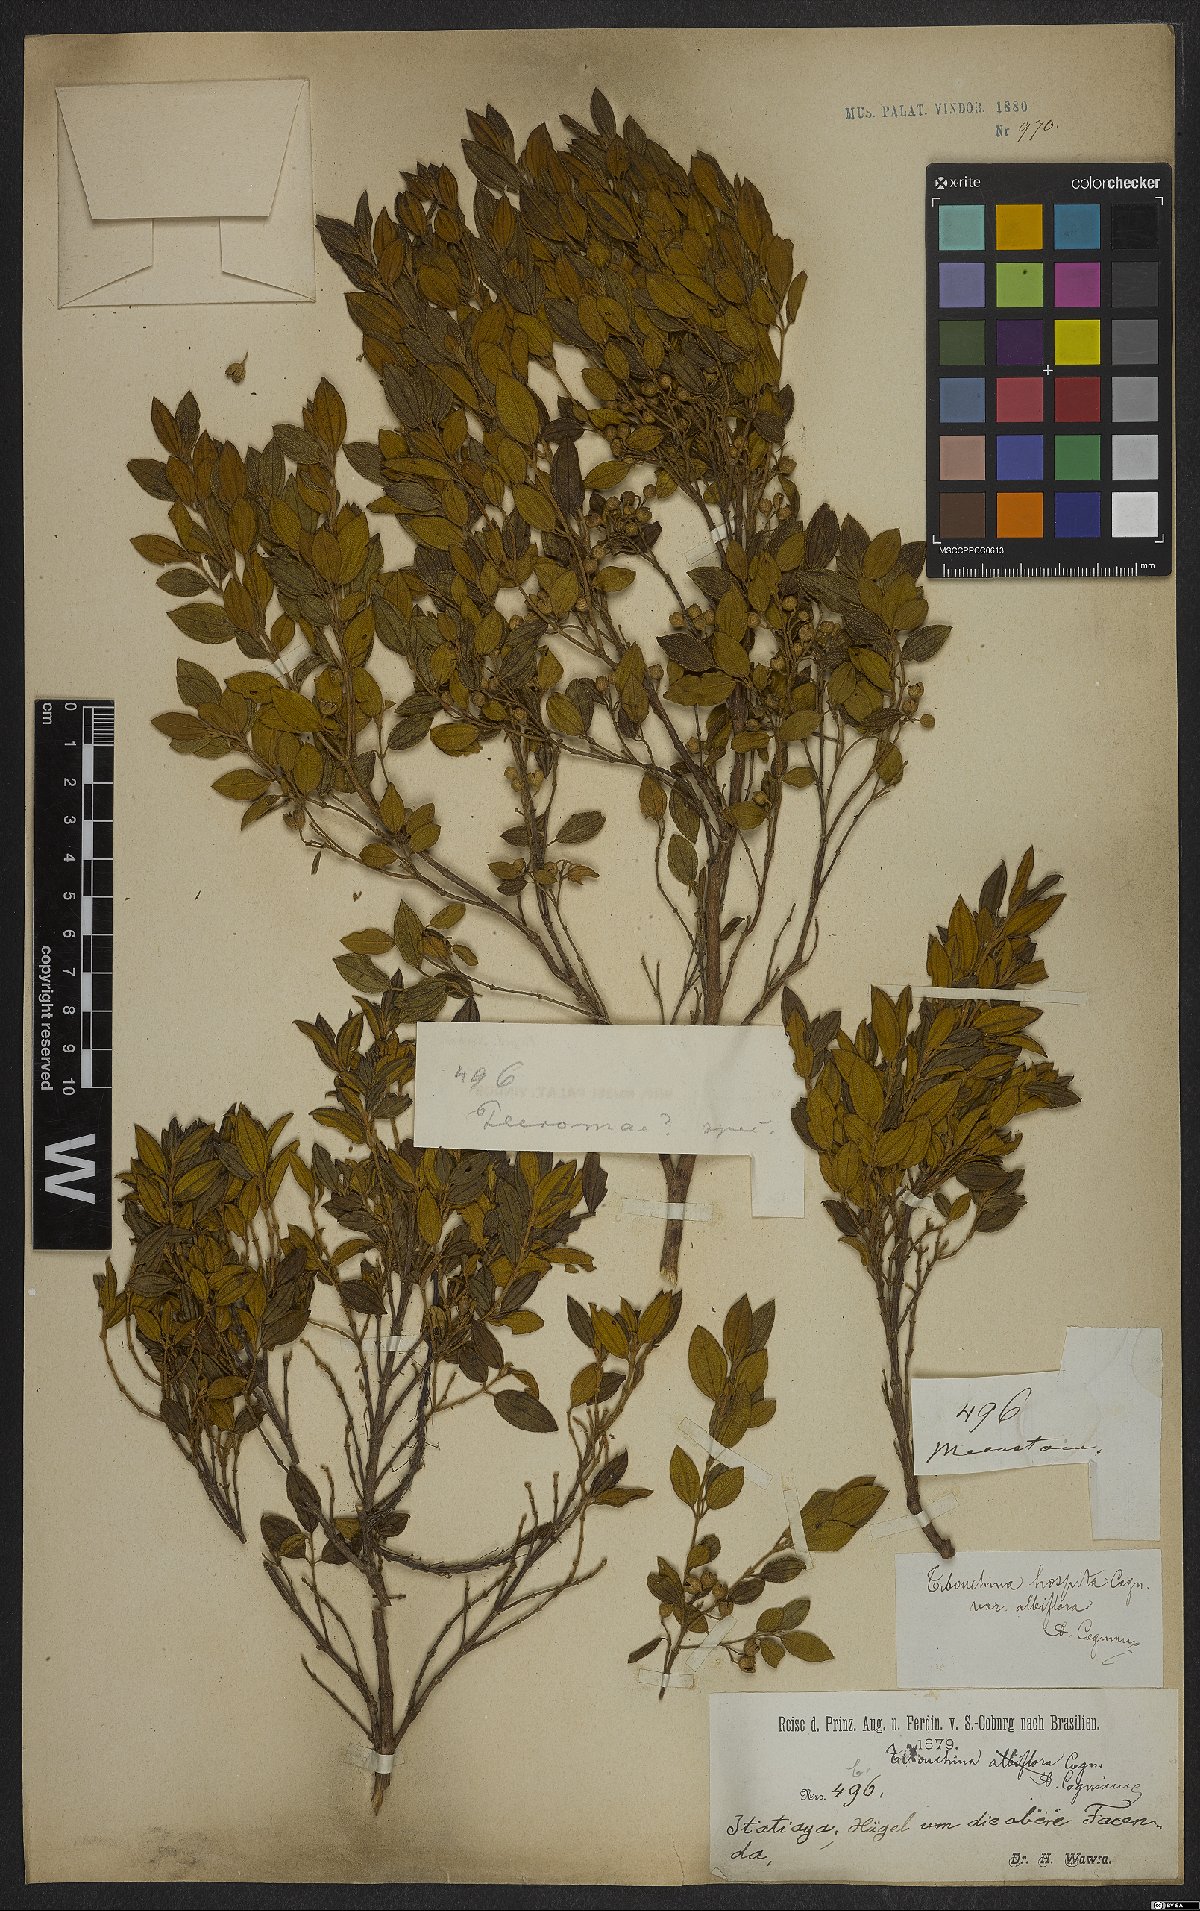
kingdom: Plantae
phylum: Tracheophyta
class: Magnoliopsida
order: Myrtales
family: Melastomataceae
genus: Pleroma
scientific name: Pleroma hospitum
